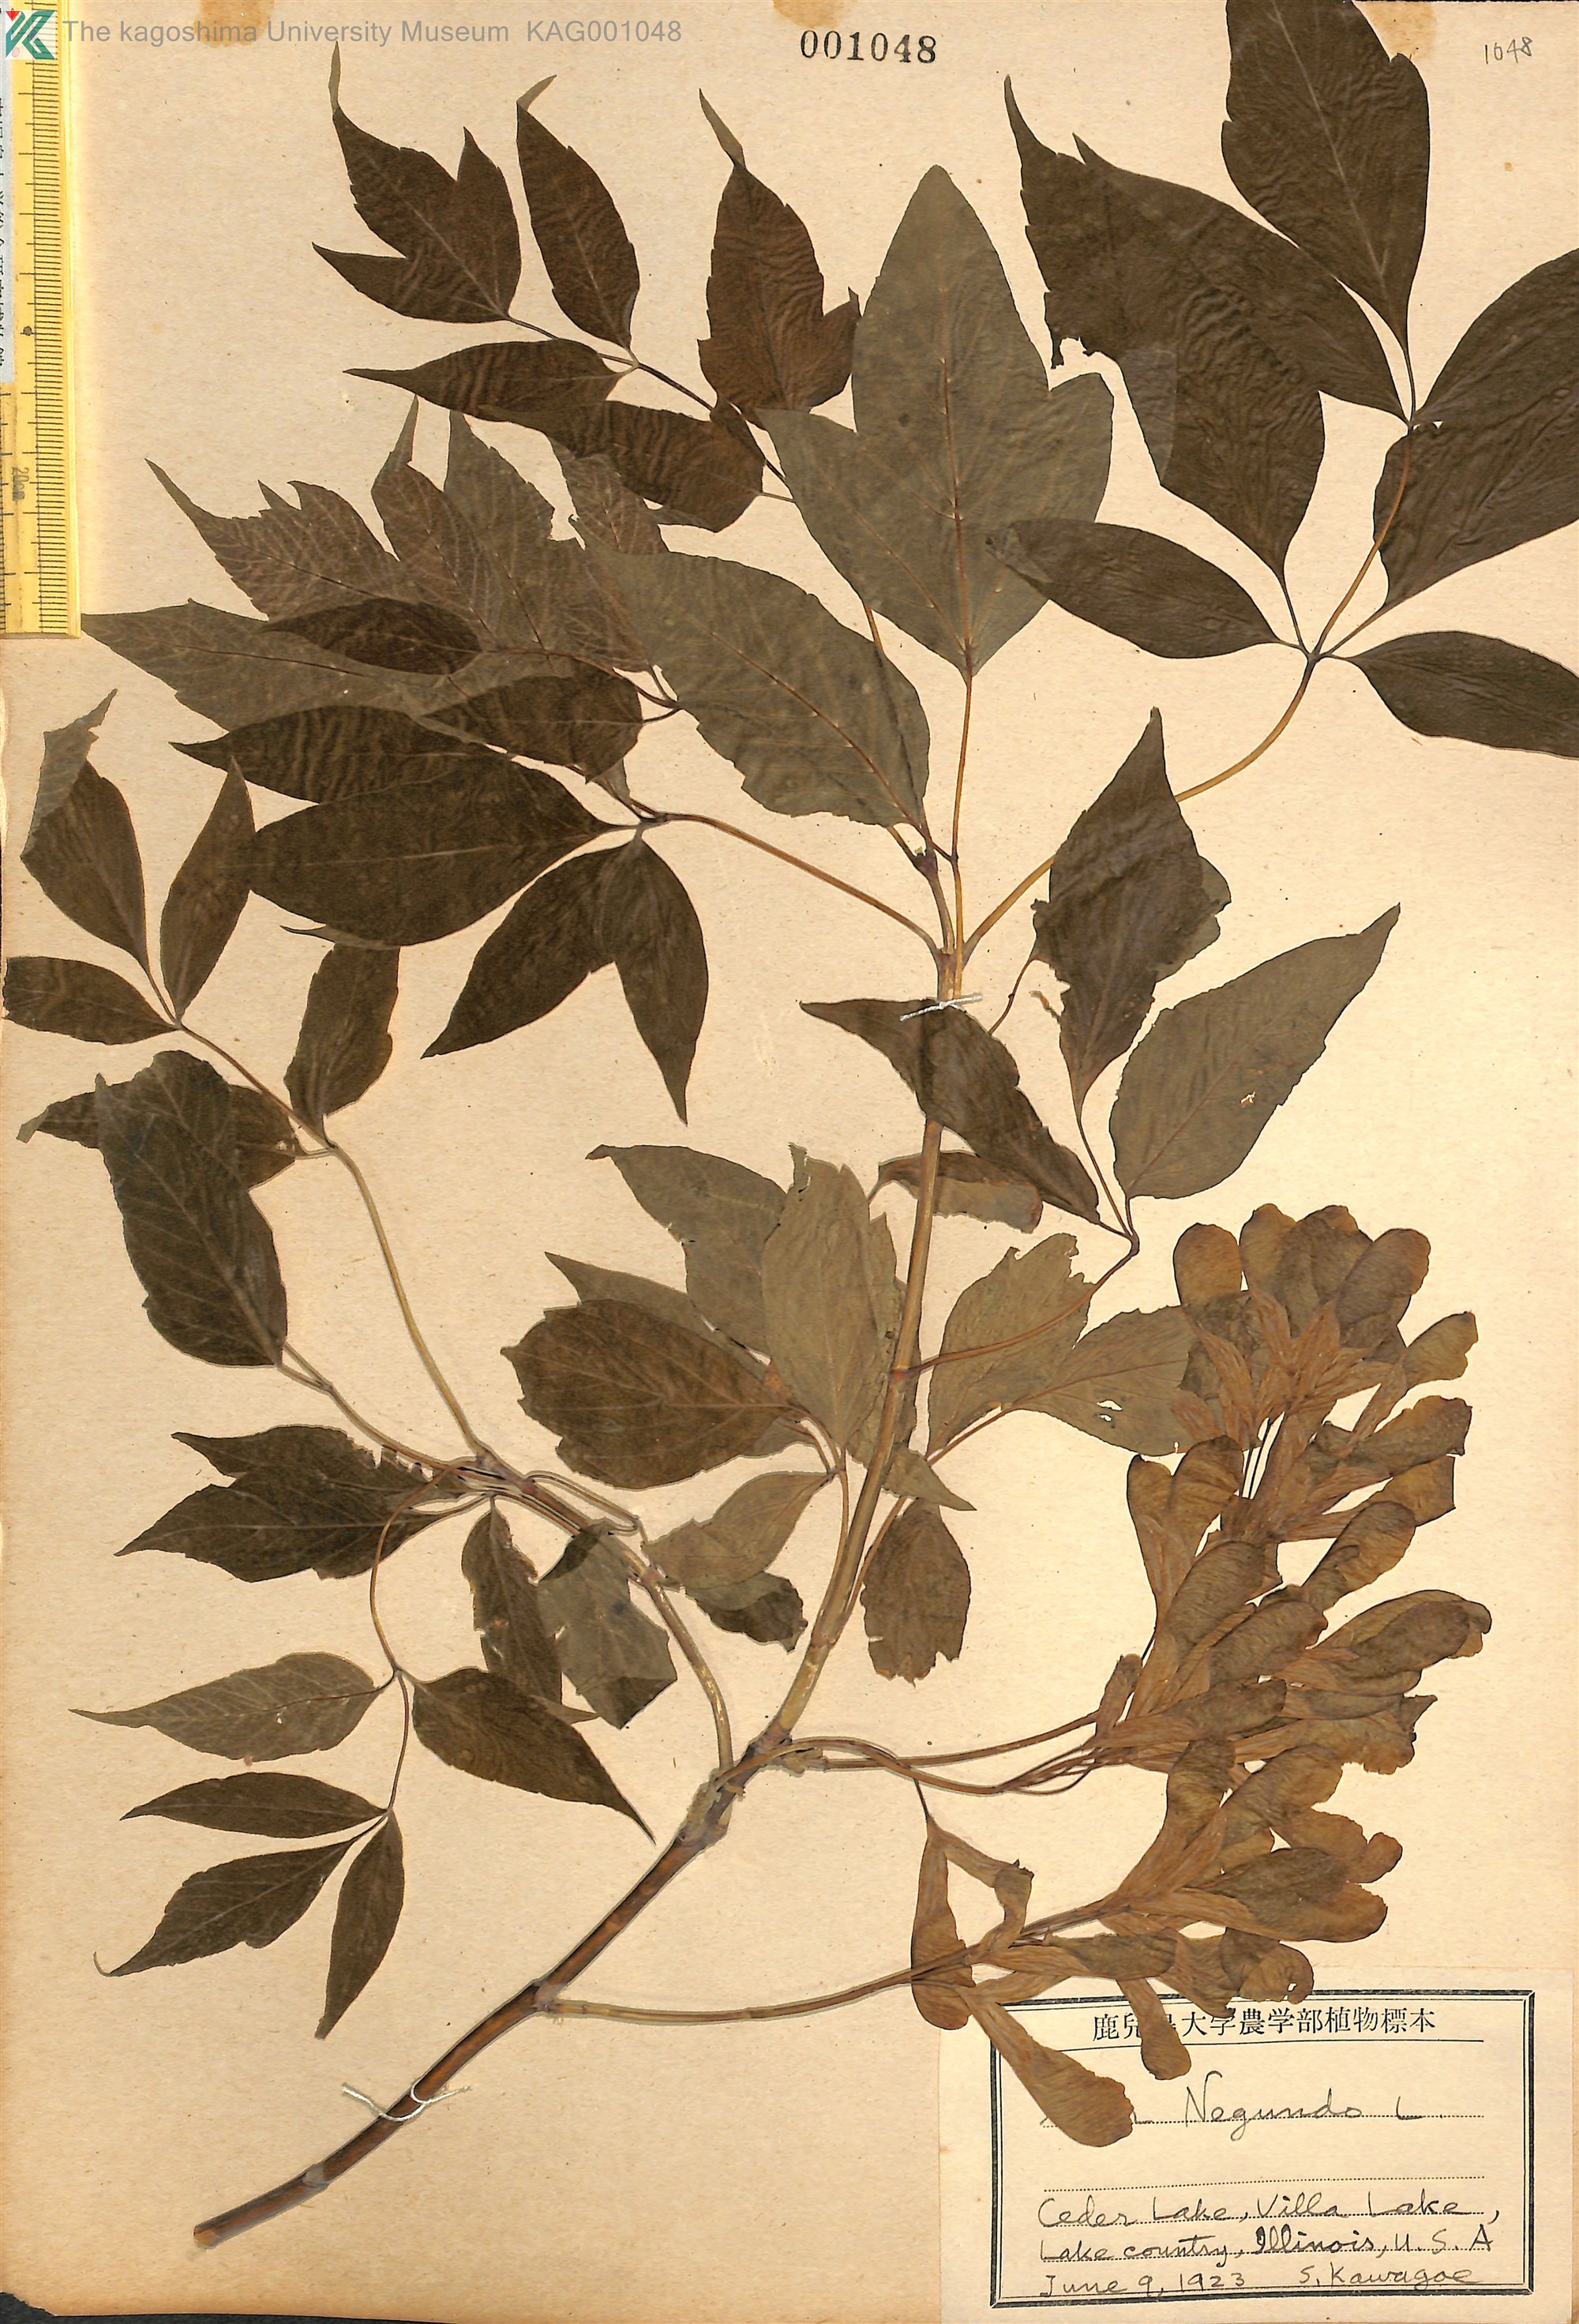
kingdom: Plantae
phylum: Tracheophyta
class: Magnoliopsida
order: Sapindales
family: Sapindaceae
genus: Acer
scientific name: Acer negundo
